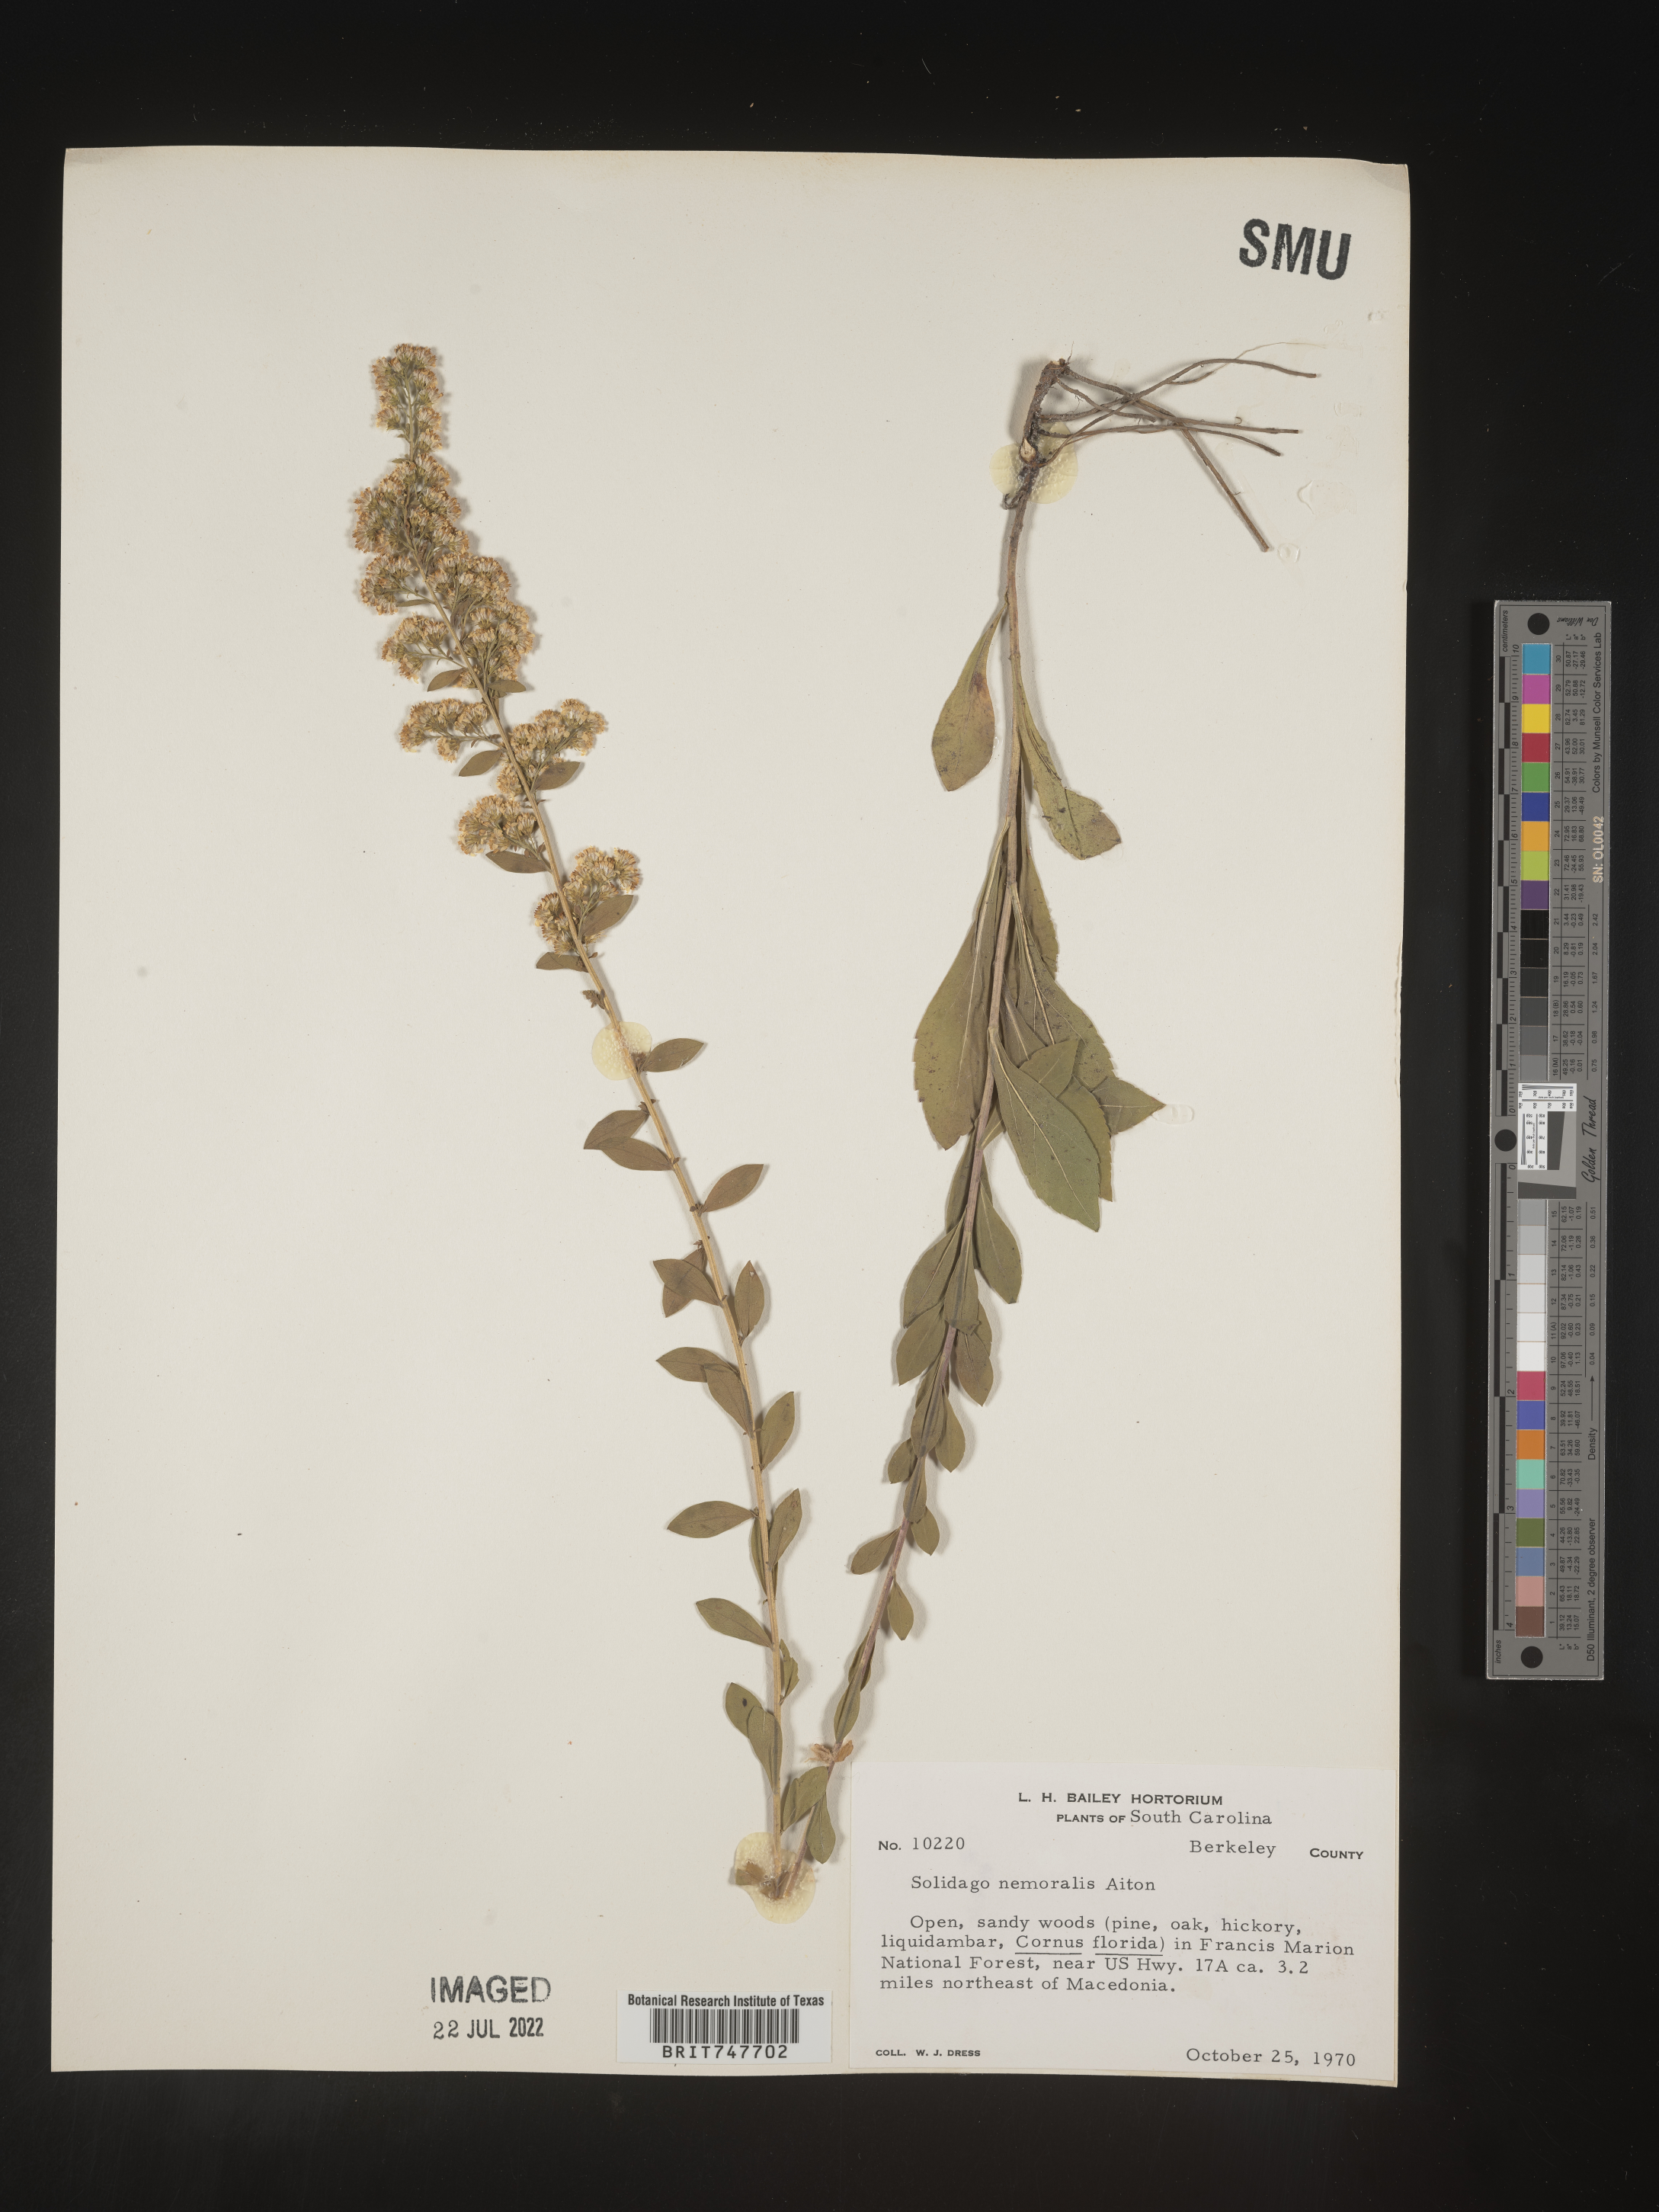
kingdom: Plantae
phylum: Tracheophyta
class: Magnoliopsida
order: Asterales
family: Asteraceae
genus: Solidago
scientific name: Solidago nemoralis
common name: Grey goldenrod
